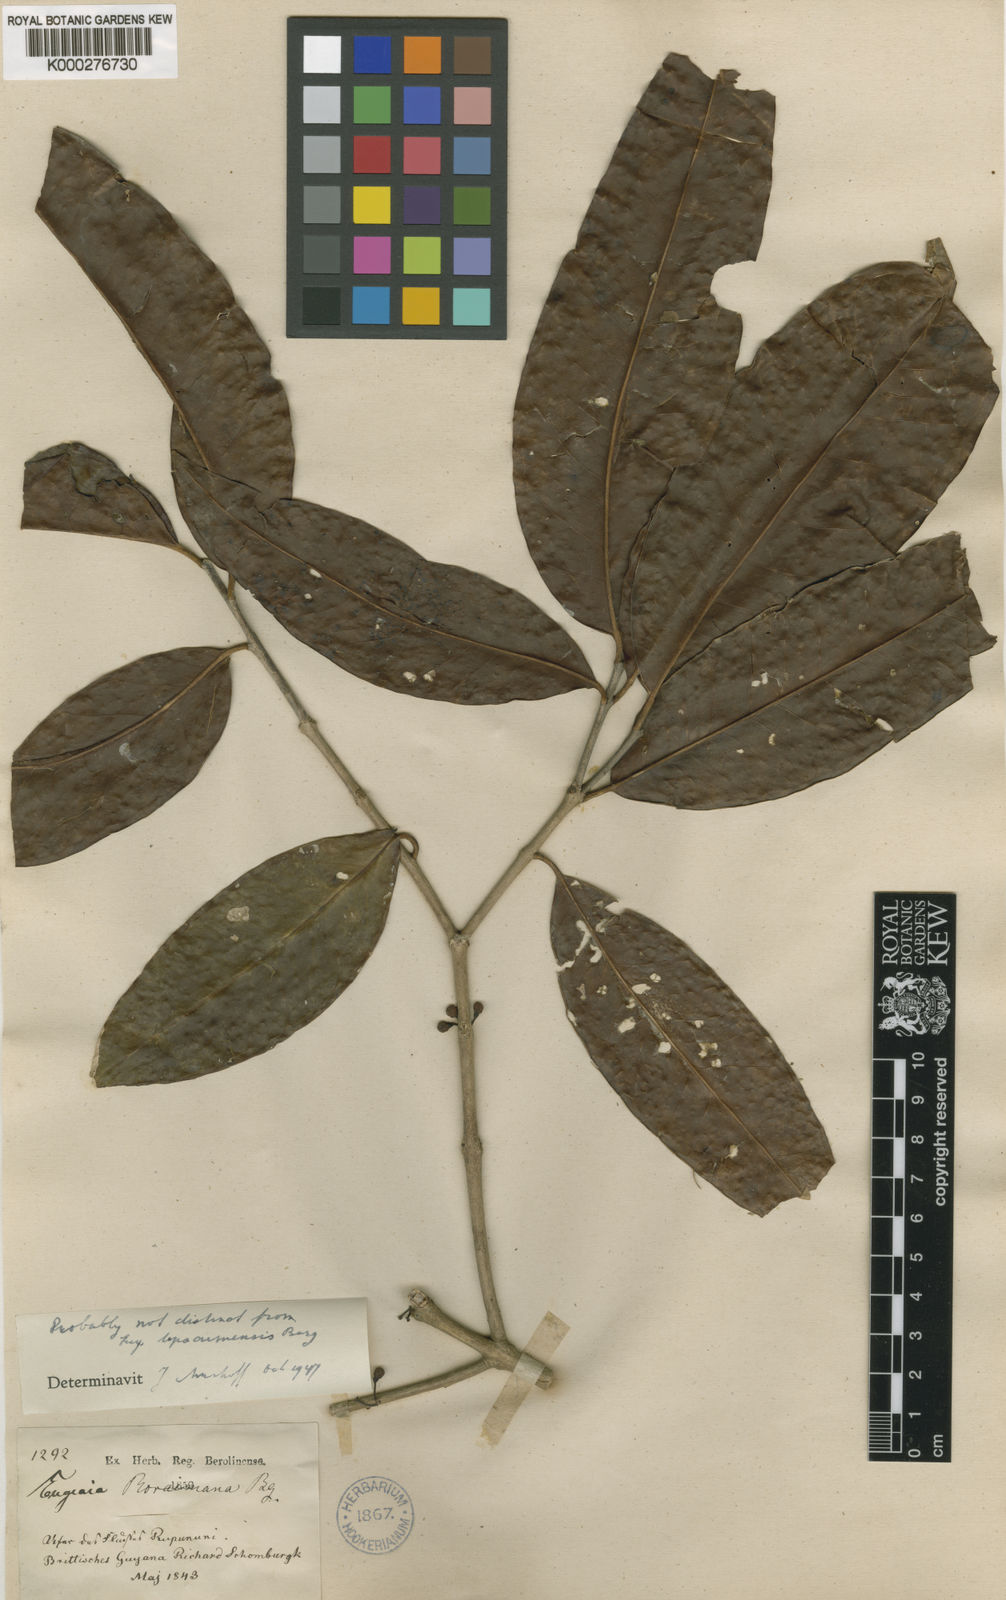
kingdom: Plantae
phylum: Tracheophyta
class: Magnoliopsida
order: Myrtales
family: Myrtaceae
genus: Eugenia
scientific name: Eugenia stictopetala
